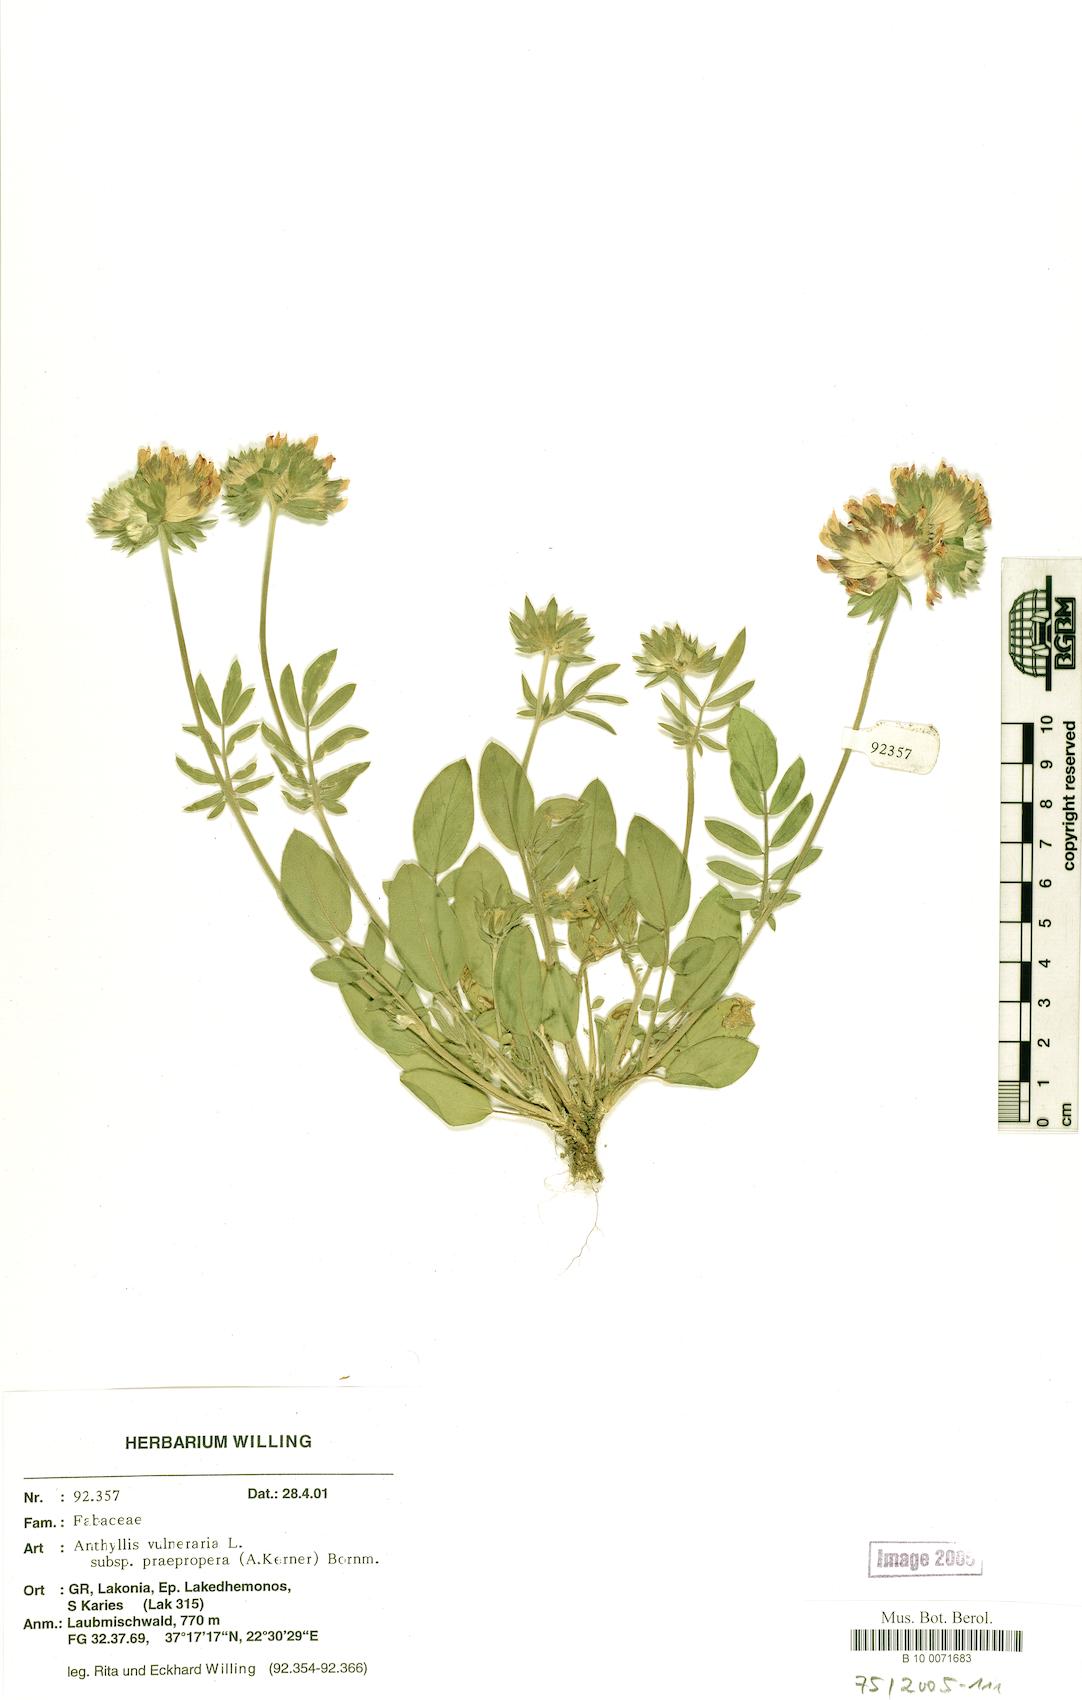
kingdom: Plantae
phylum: Tracheophyta
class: Magnoliopsida
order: Fabales
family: Fabaceae
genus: Anthyllis
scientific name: Anthyllis vulneraria
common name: Kidney vetch
